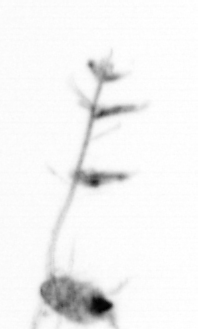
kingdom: Animalia
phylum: Arthropoda
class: Copepoda
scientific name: Copepoda
